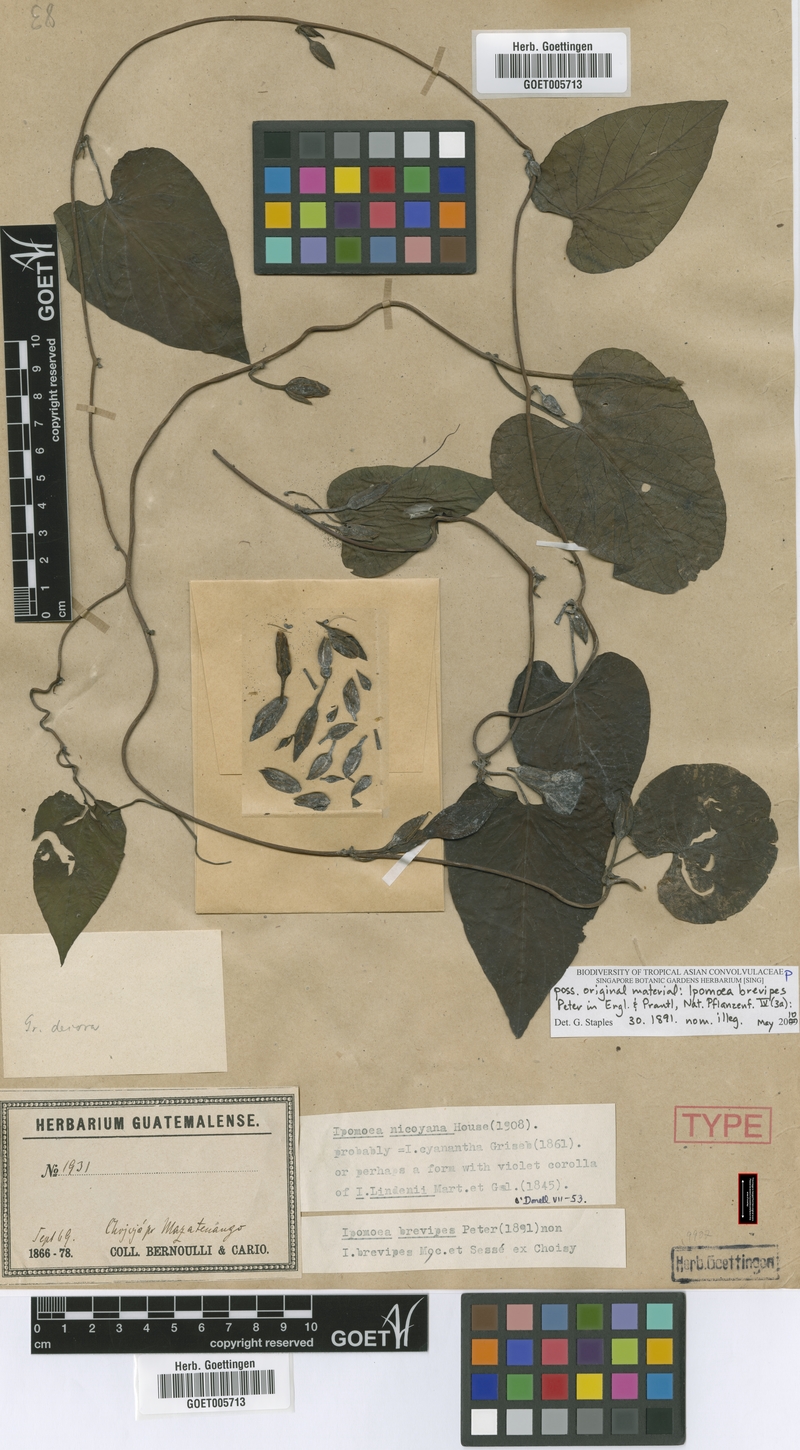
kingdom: Plantae
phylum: Tracheophyta
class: Magnoliopsida
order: Solanales
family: Convolvulaceae
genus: Ipomoea
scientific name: Ipomoea lindenii
